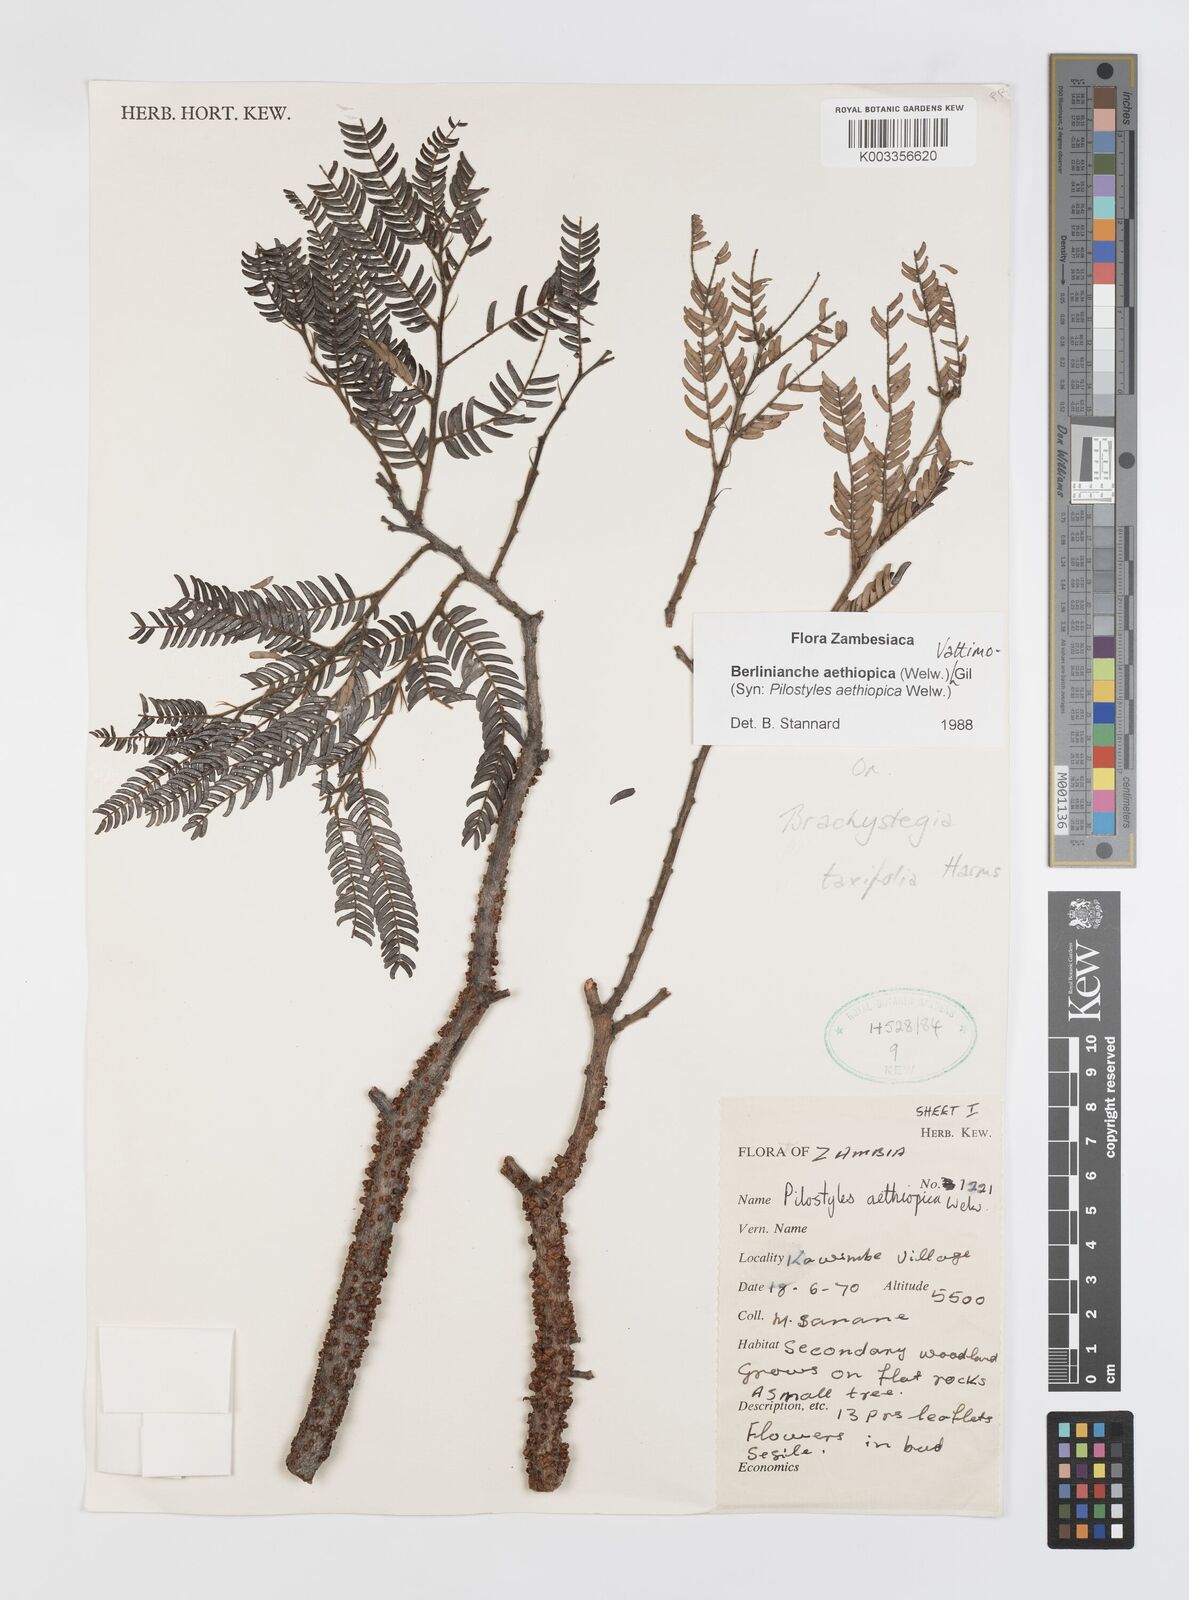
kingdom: Plantae
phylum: Tracheophyta
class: Magnoliopsida
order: Cucurbitales
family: Apodanthaceae
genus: Pilostyles
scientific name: Pilostyles aethiopica
